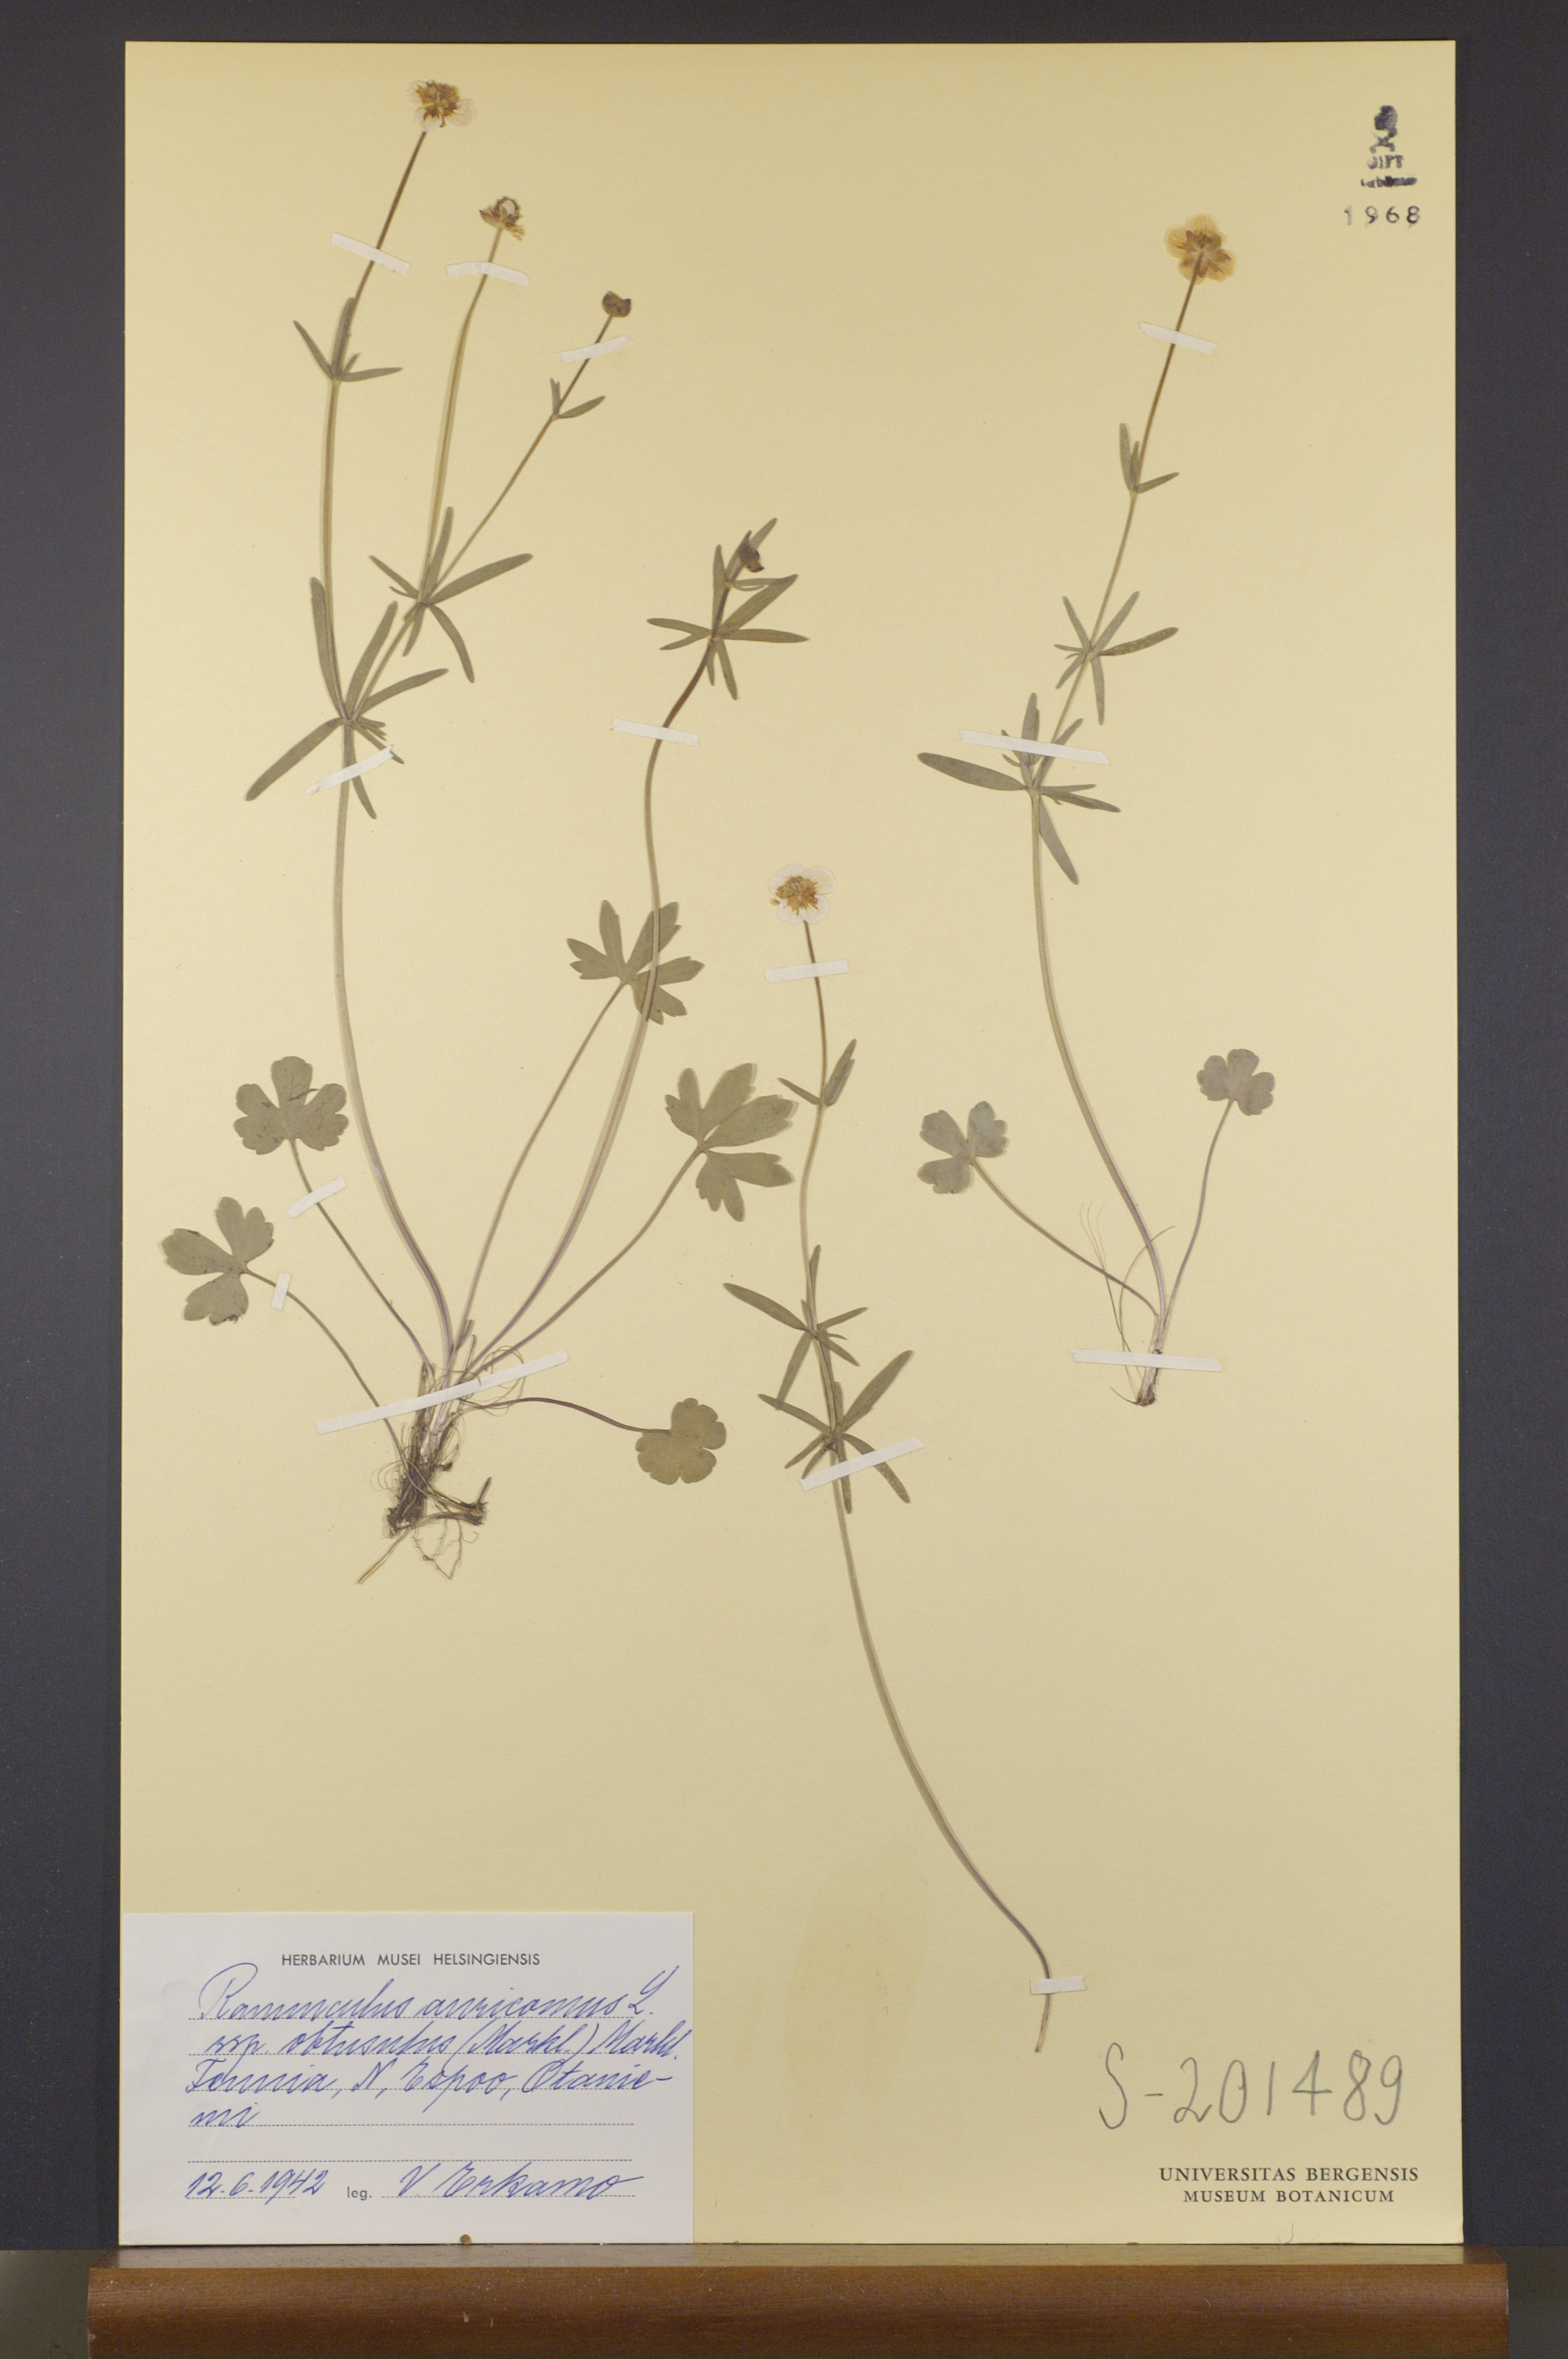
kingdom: Plantae
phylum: Tracheophyta
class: Magnoliopsida
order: Ranunculales
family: Ranunculaceae
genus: Ranunculus
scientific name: Ranunculus auricomus
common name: Goldilocks buttercup
